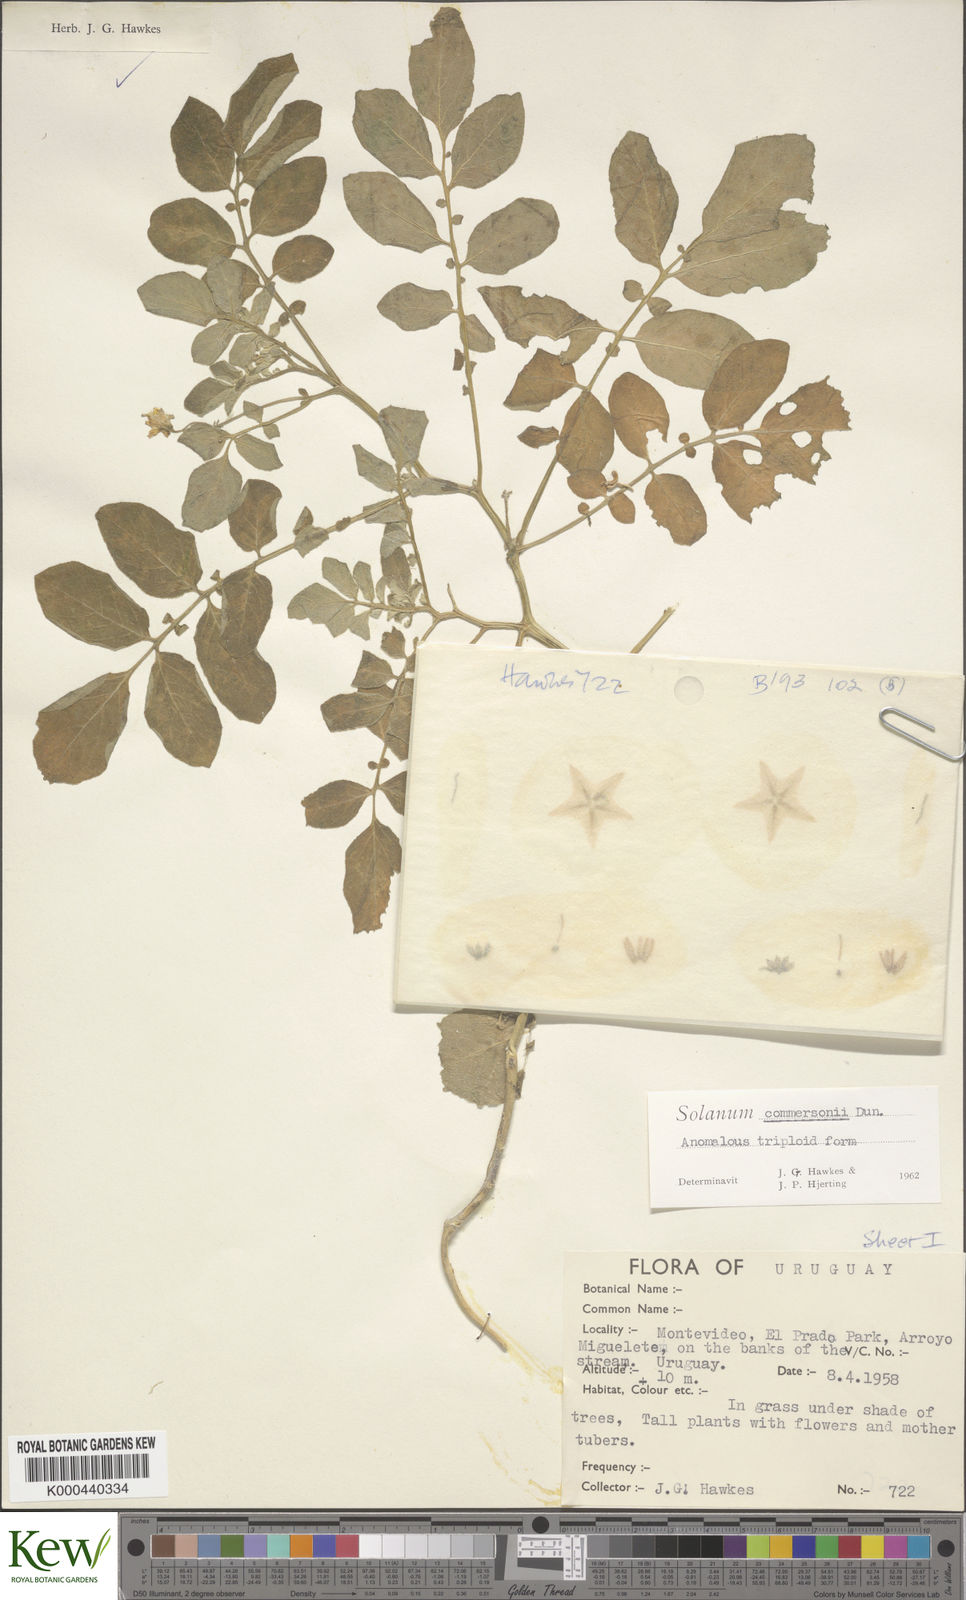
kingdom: Plantae
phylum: Tracheophyta
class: Magnoliopsida
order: Solanales
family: Solanaceae
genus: Solanum
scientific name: Solanum commersonii
